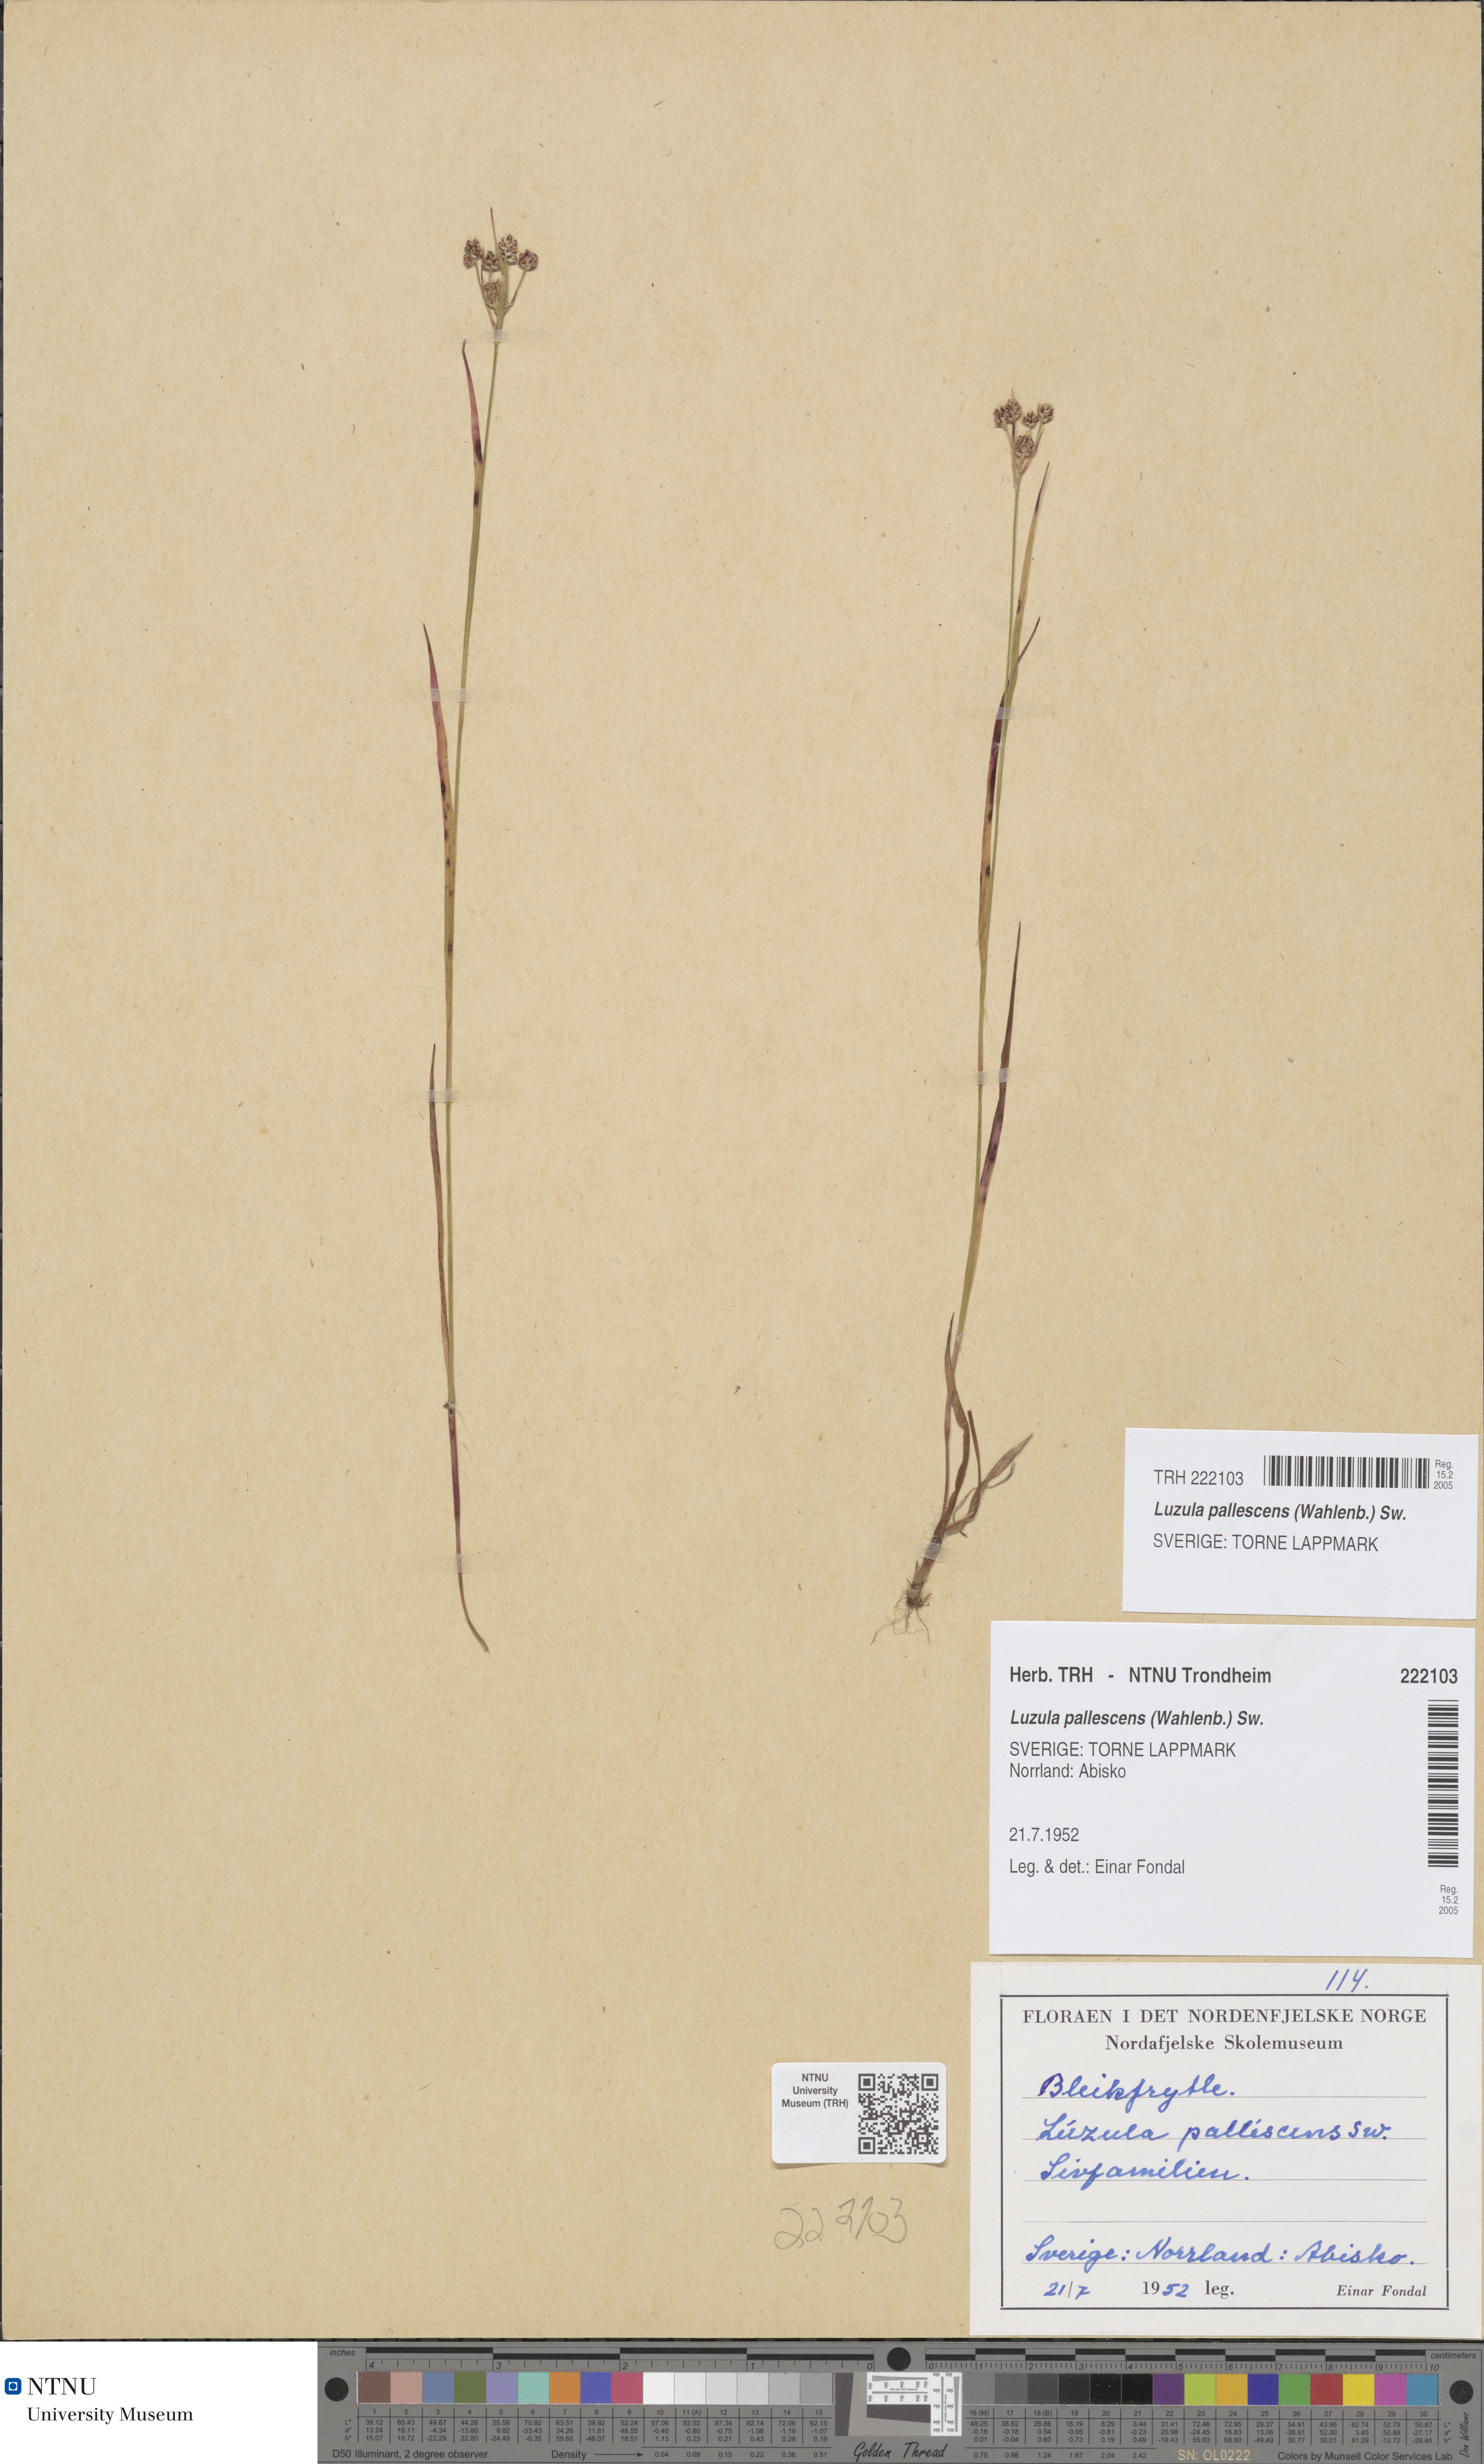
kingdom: Plantae
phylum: Tracheophyta
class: Liliopsida
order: Poales
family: Juncaceae
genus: Luzula
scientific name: Luzula pallescens
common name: Fen wood-rush
